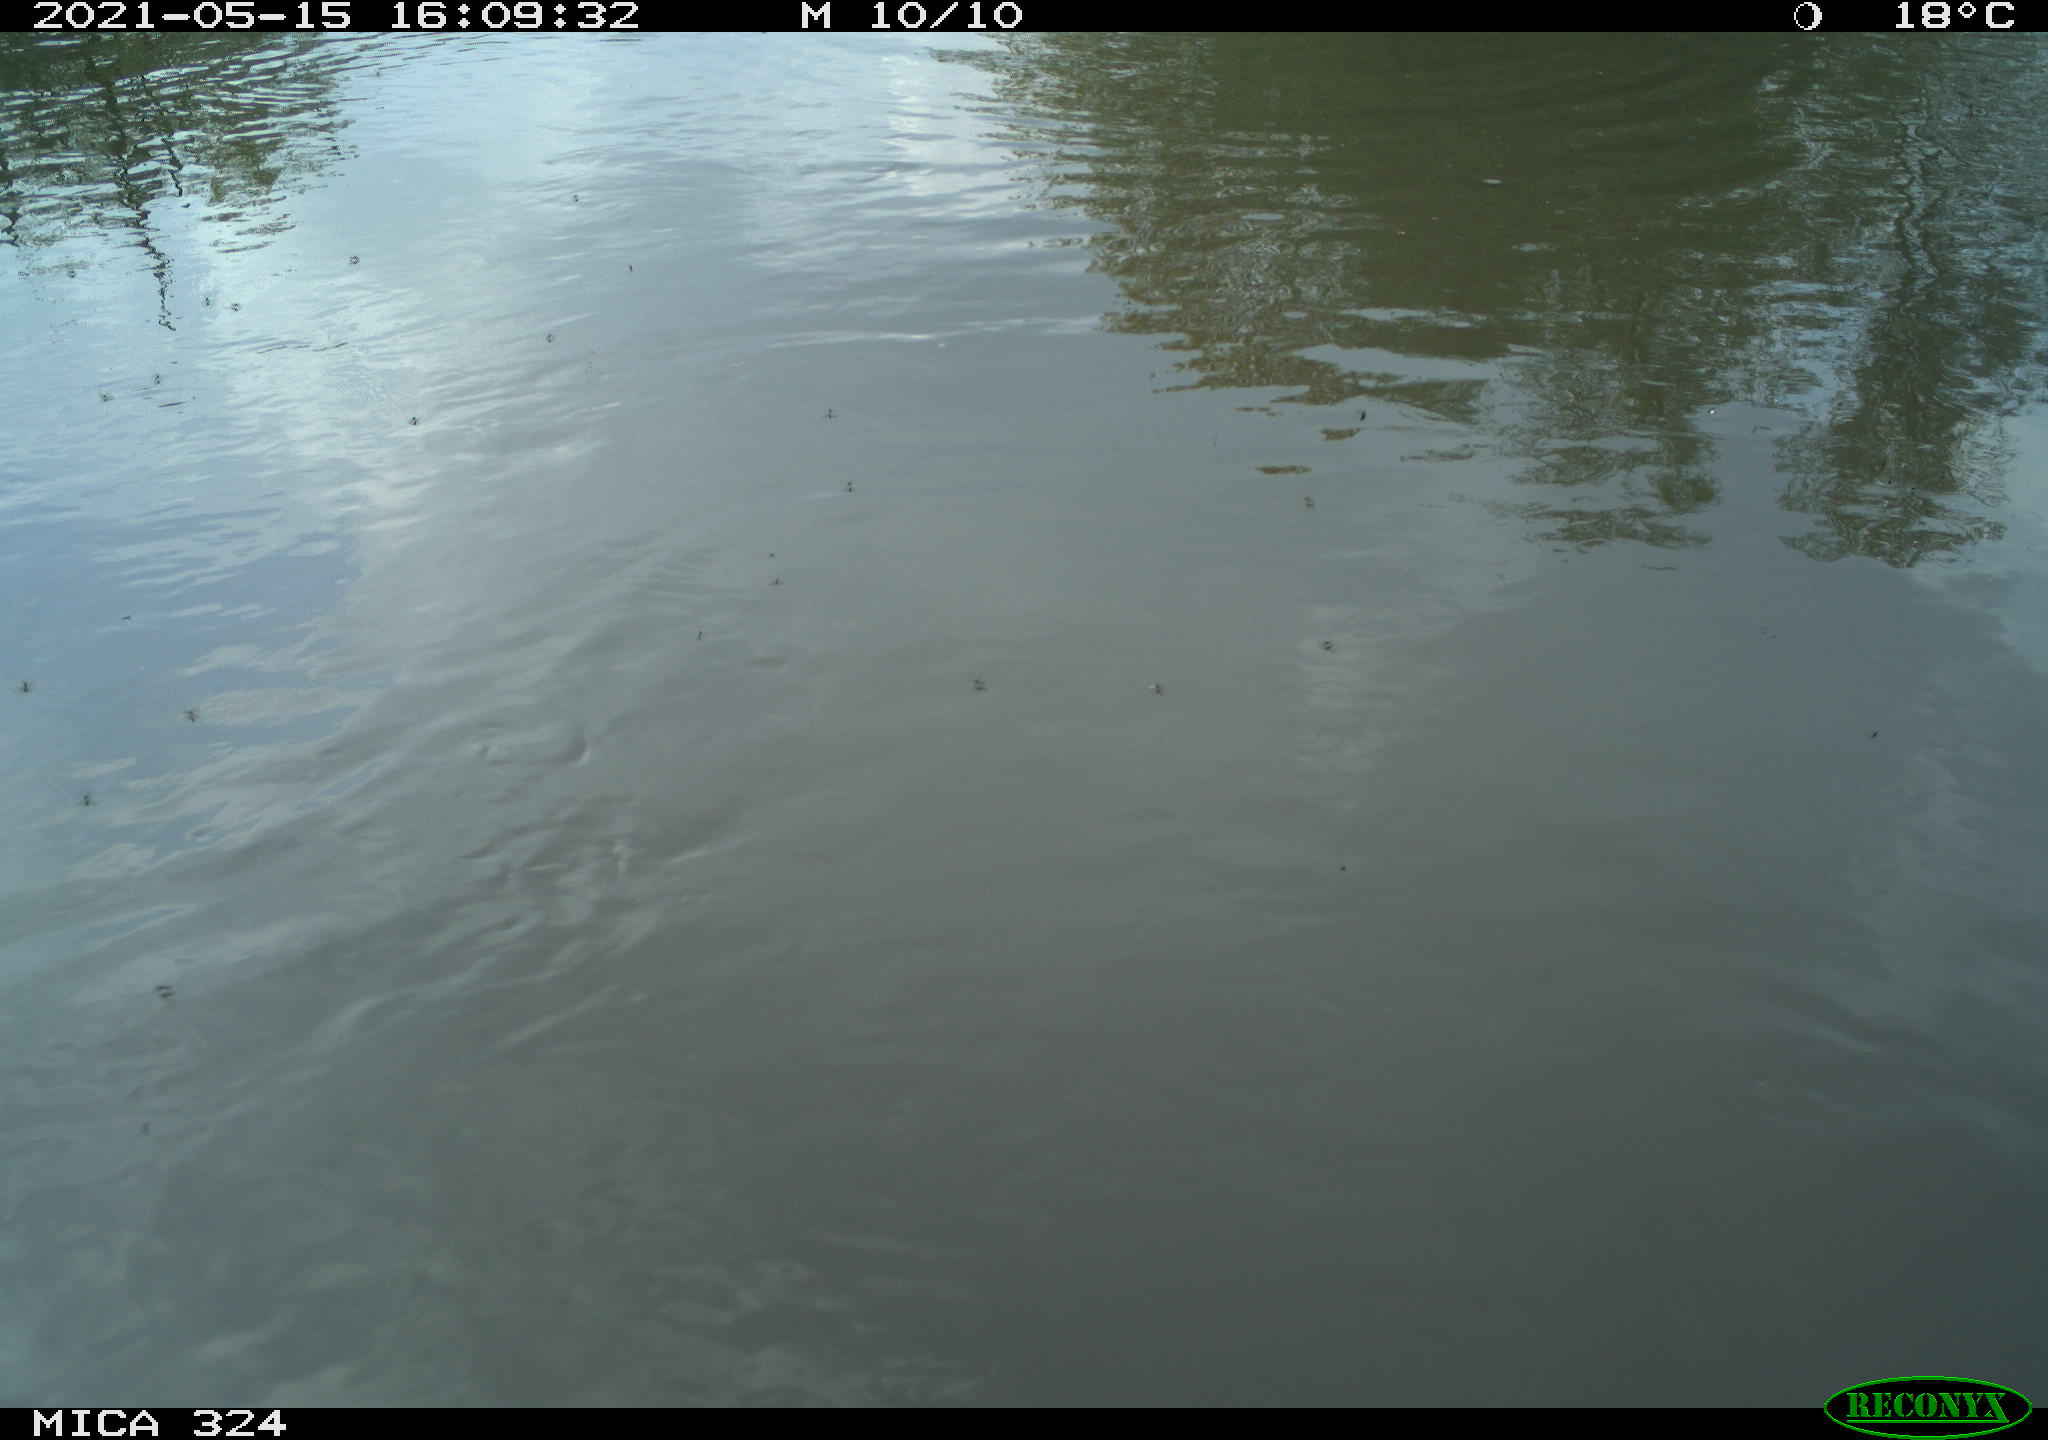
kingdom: Animalia
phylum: Chordata
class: Aves
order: Gruiformes
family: Rallidae
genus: Gallinula
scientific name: Gallinula chloropus
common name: Common moorhen
